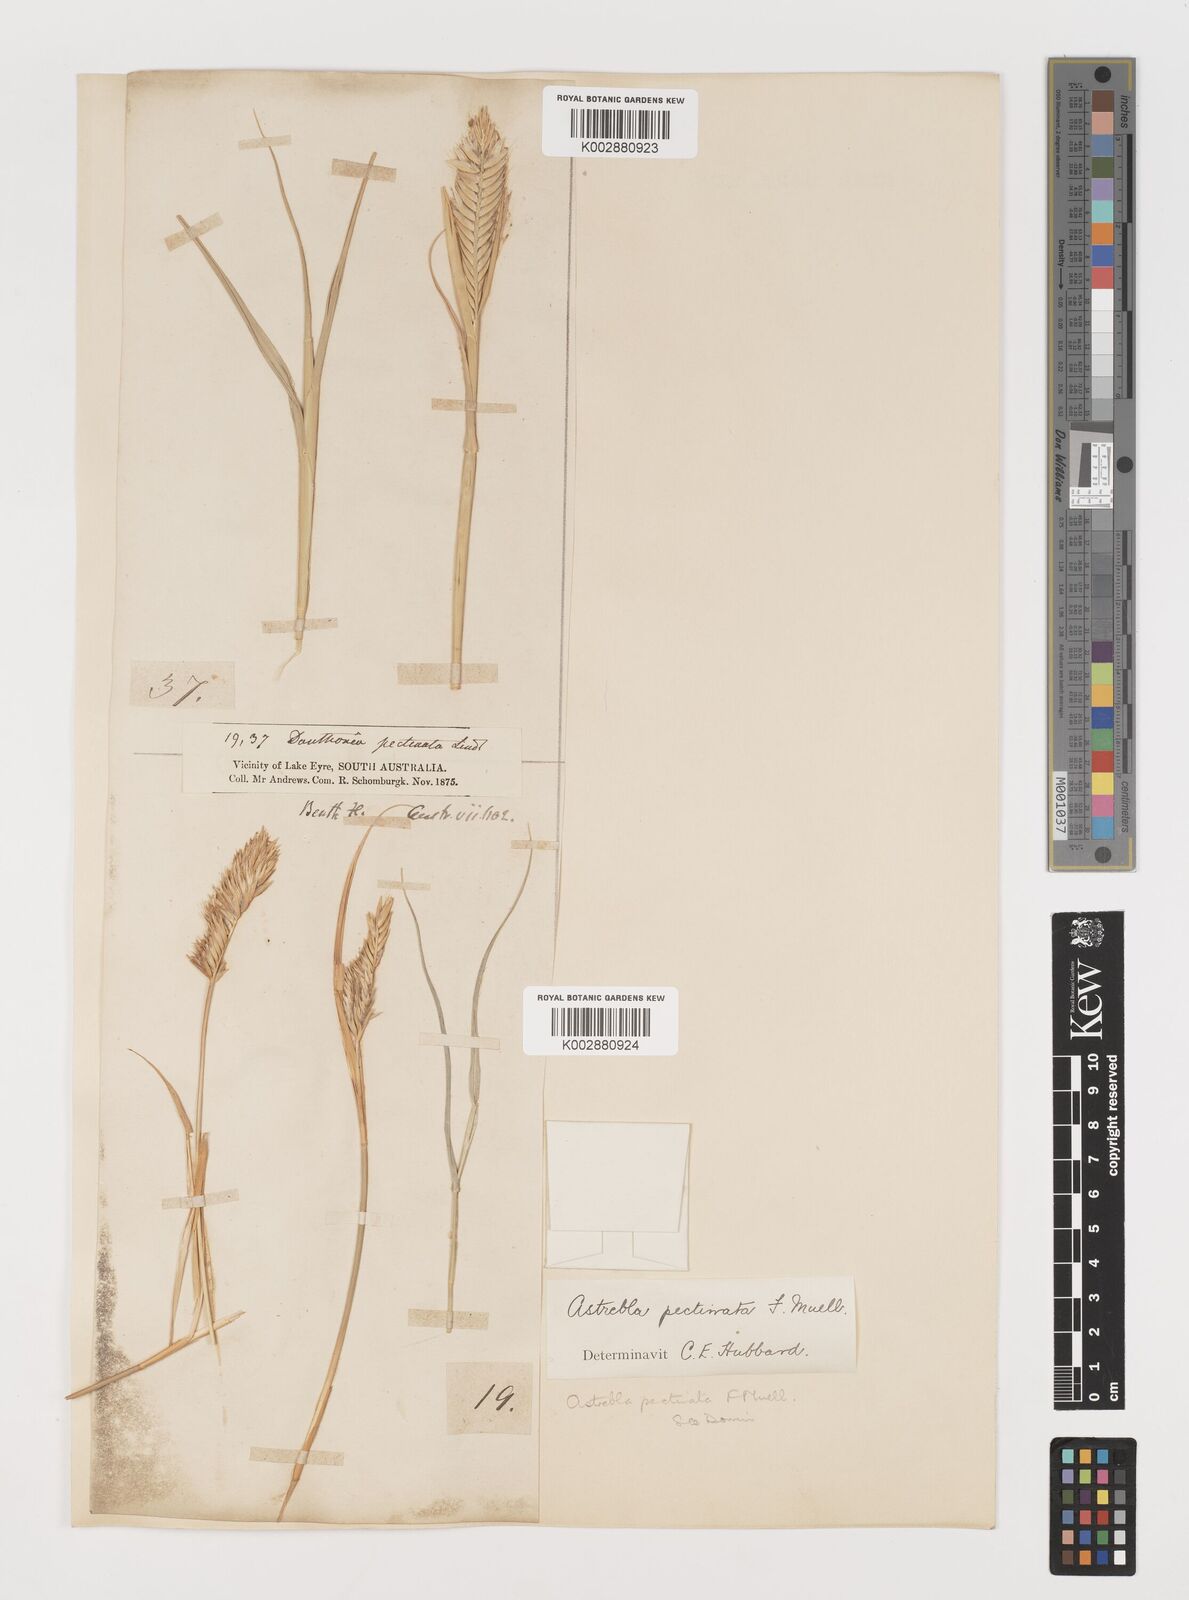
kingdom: Plantae
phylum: Tracheophyta
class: Liliopsida
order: Poales
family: Poaceae
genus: Astrebla
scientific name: Astrebla pectinata
